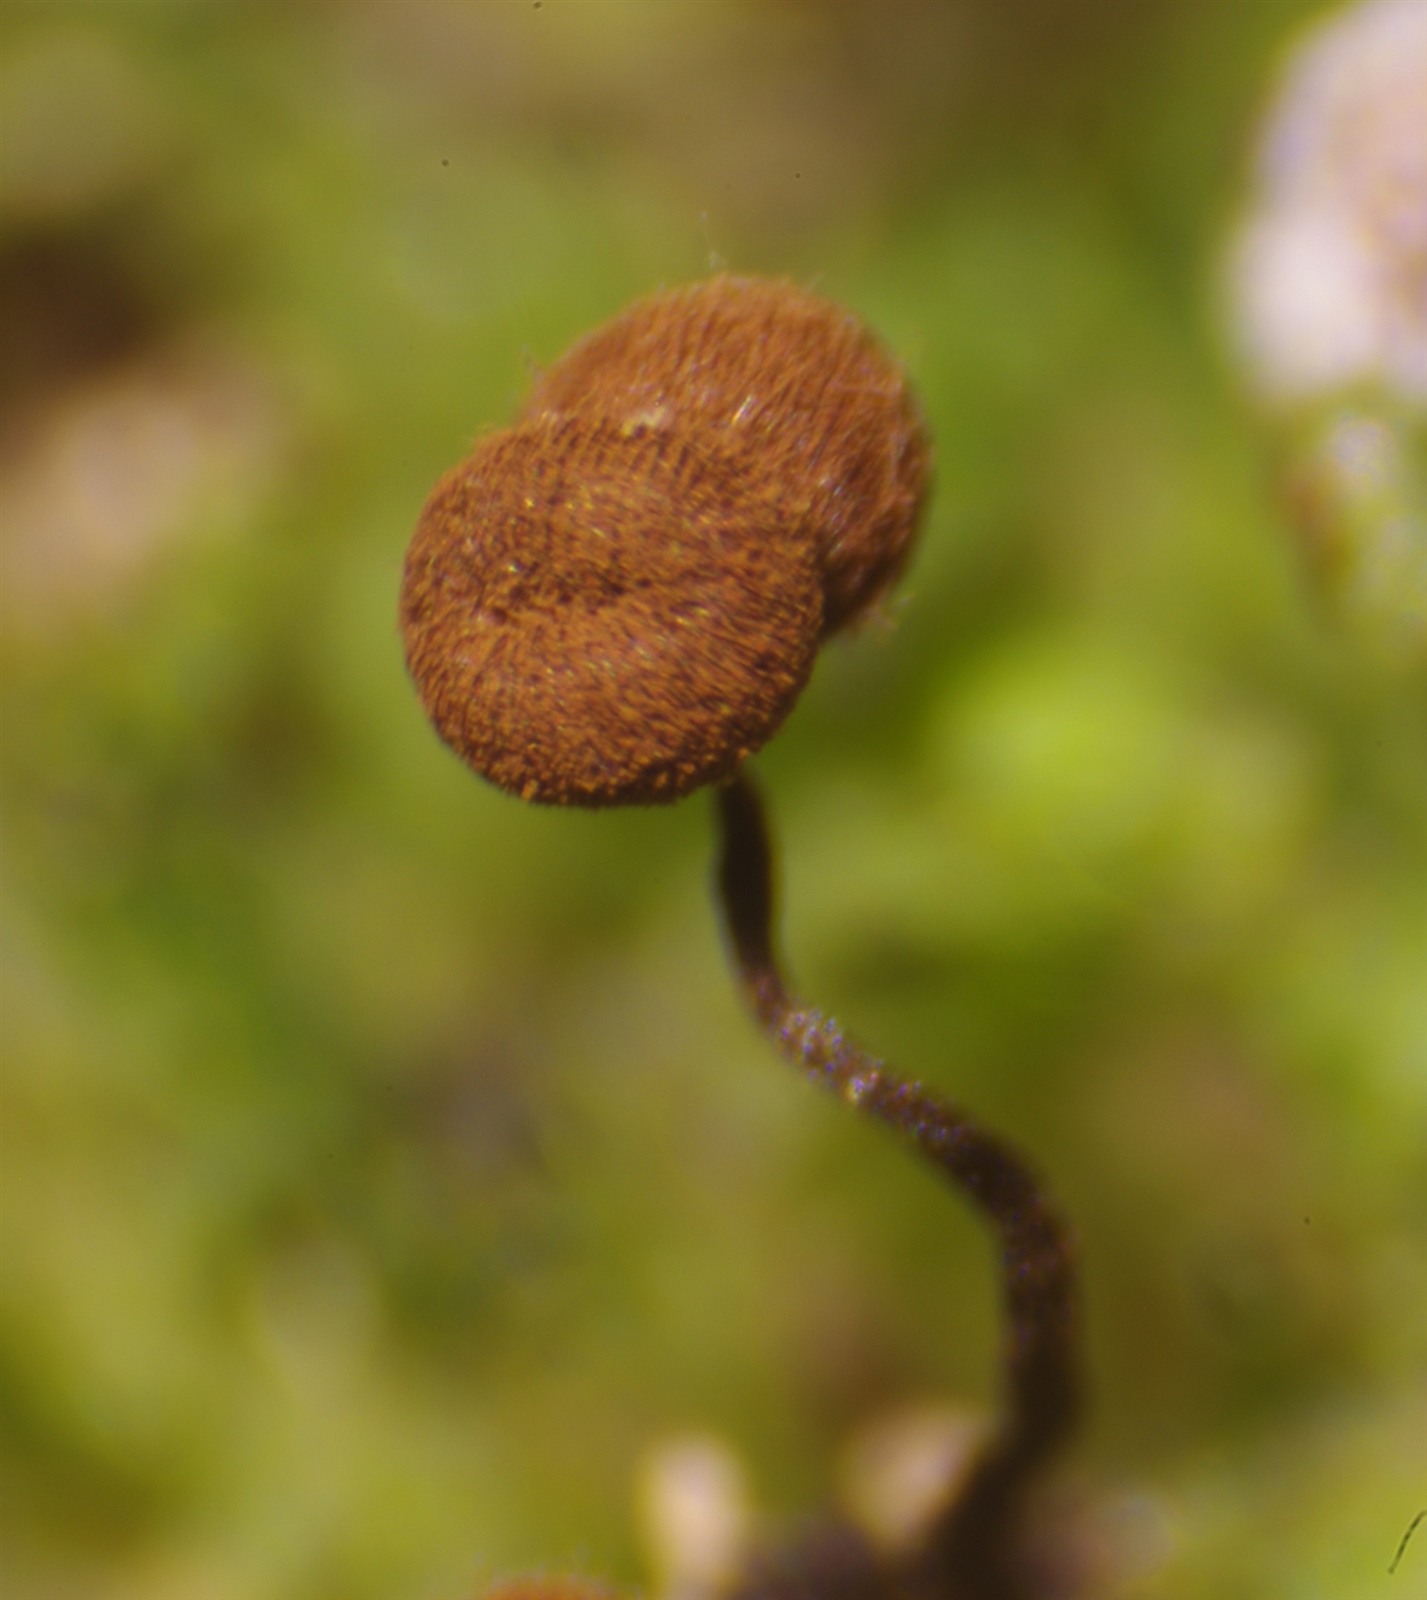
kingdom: Protozoa
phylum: Mycetozoa
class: Myxomycetes
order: Cribrariales
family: Cribrariaceae
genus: Cribraria
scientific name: Cribraria cancellata
